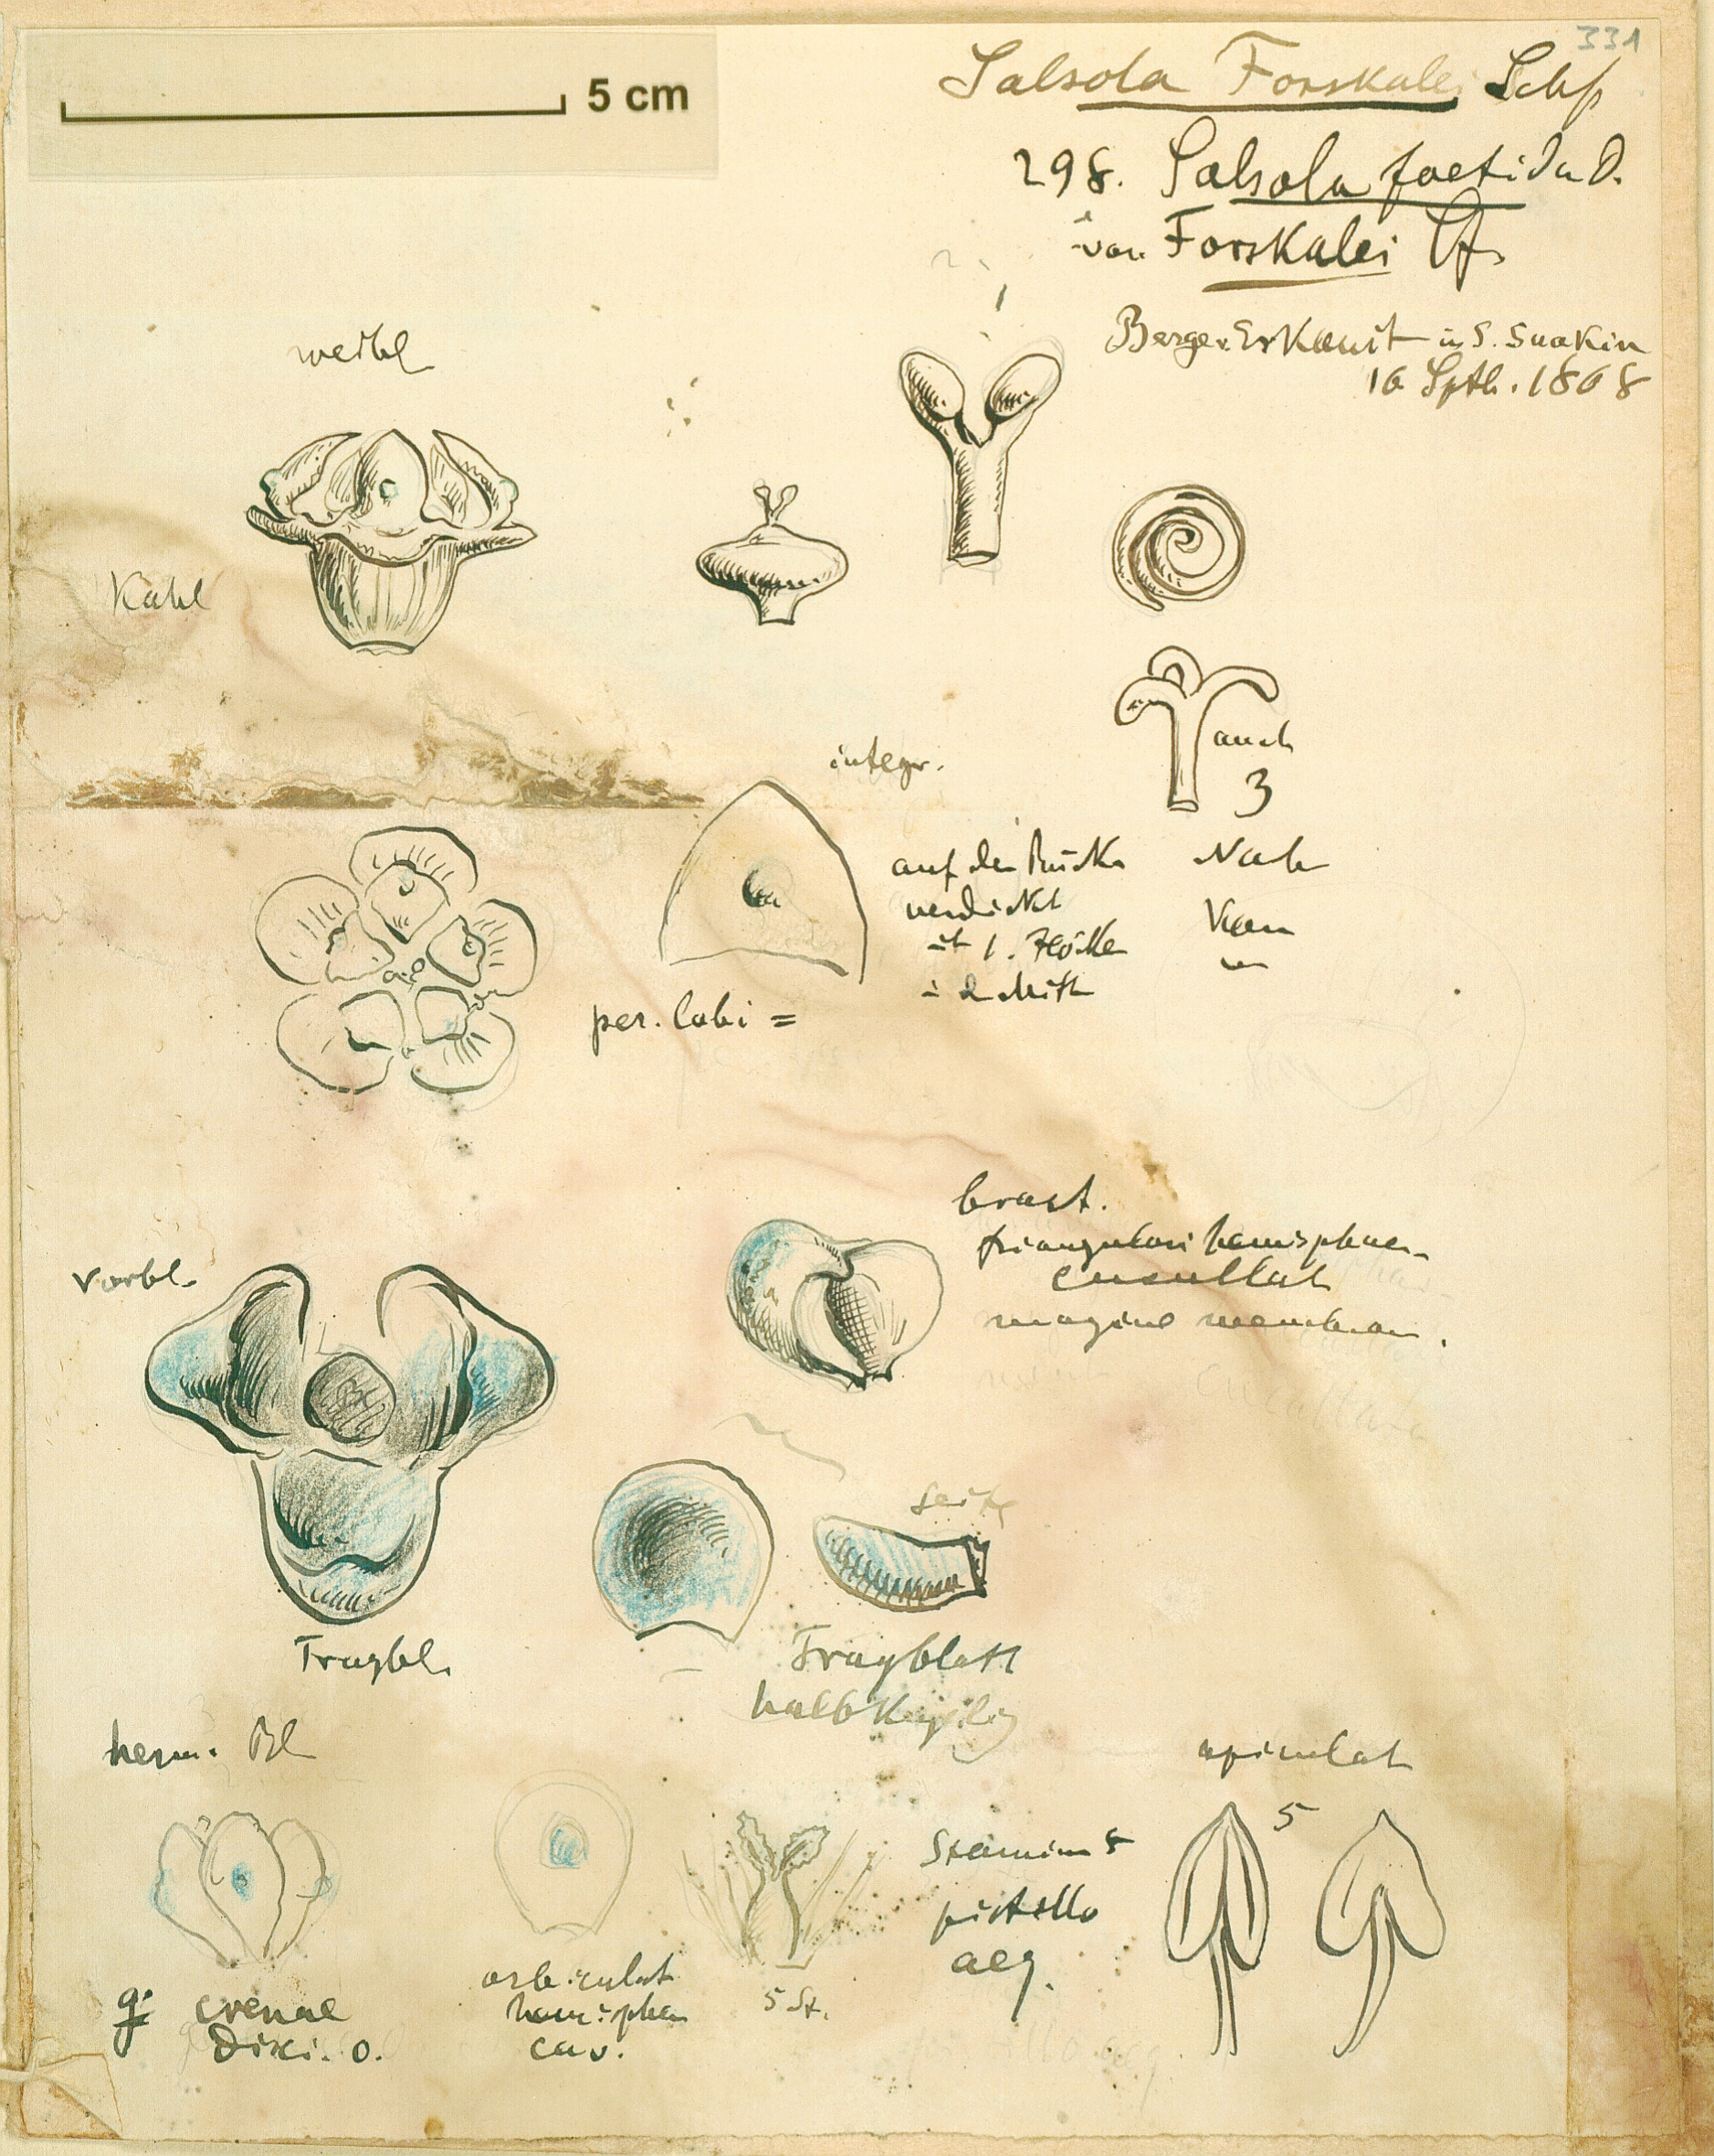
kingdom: Plantae
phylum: Tracheophyta
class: Magnoliopsida
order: Caryophyllales
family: Amaranthaceae
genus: Caroxylon
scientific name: Caroxylon imbricatum
